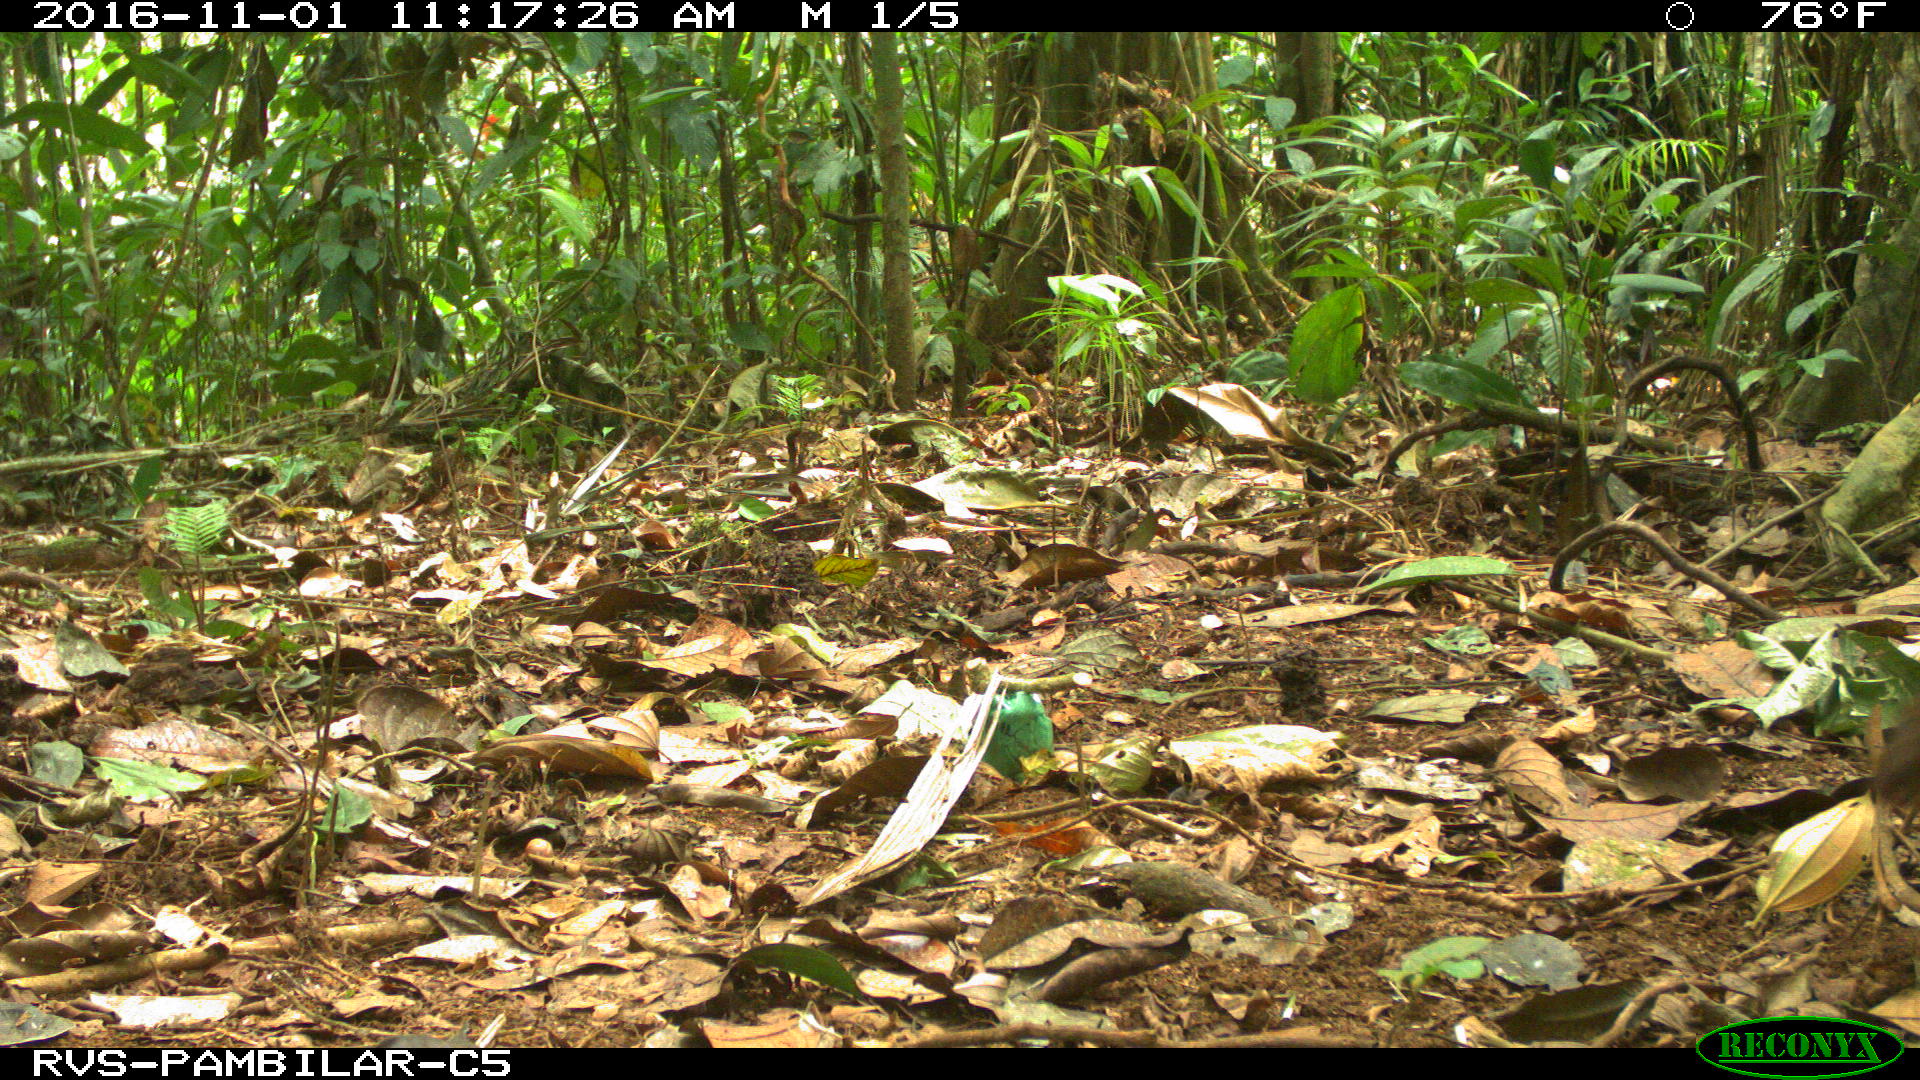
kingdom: Animalia
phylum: Chordata
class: Mammalia
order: Rodentia
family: Dasyproctidae
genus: Dasyprocta
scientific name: Dasyprocta punctata
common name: Central american agouti
